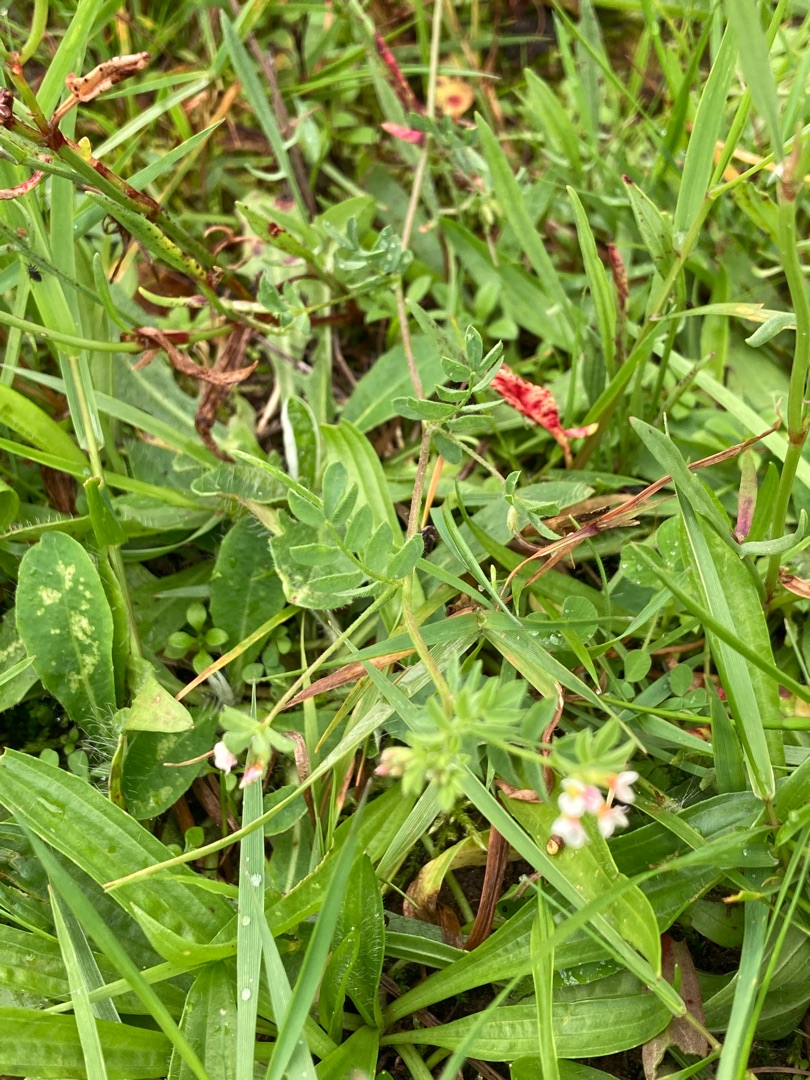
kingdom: Plantae
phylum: Tracheophyta
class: Magnoliopsida
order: Fabales
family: Fabaceae
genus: Ornithopus
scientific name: Ornithopus perpusillus
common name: Liden fugleklo
